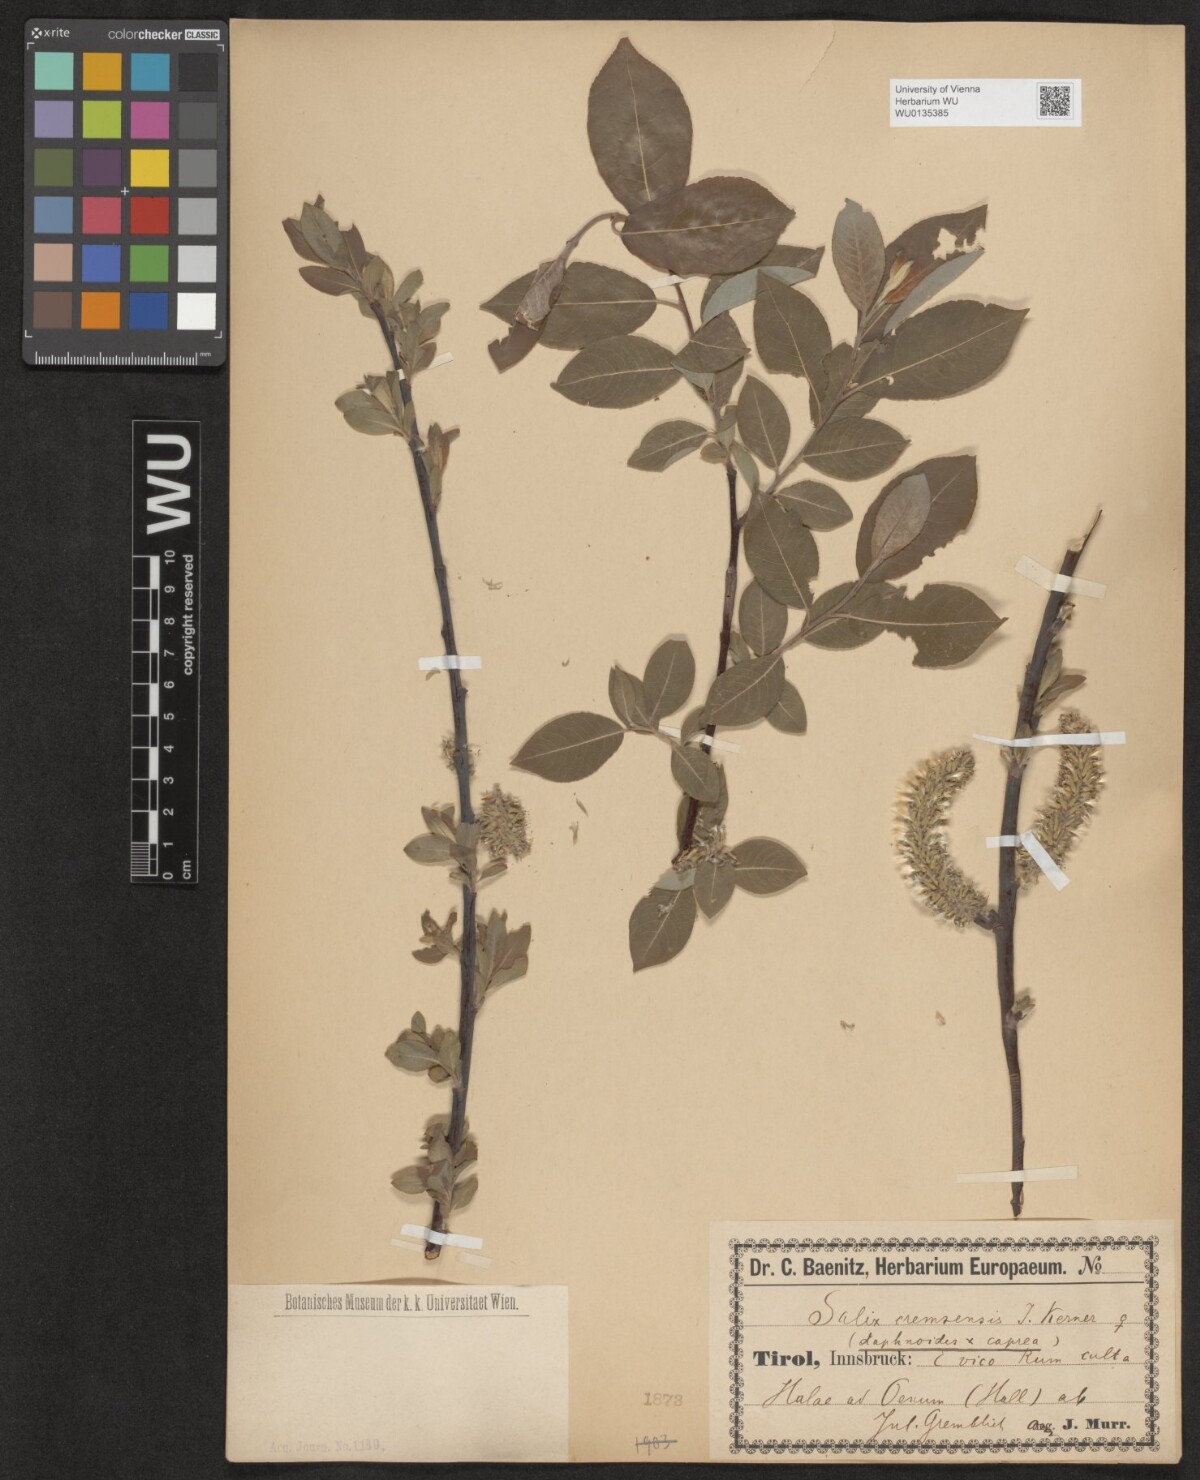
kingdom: Plantae
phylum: Tracheophyta
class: Magnoliopsida
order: Malpighiales
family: Salicaceae
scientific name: Salicaceae
